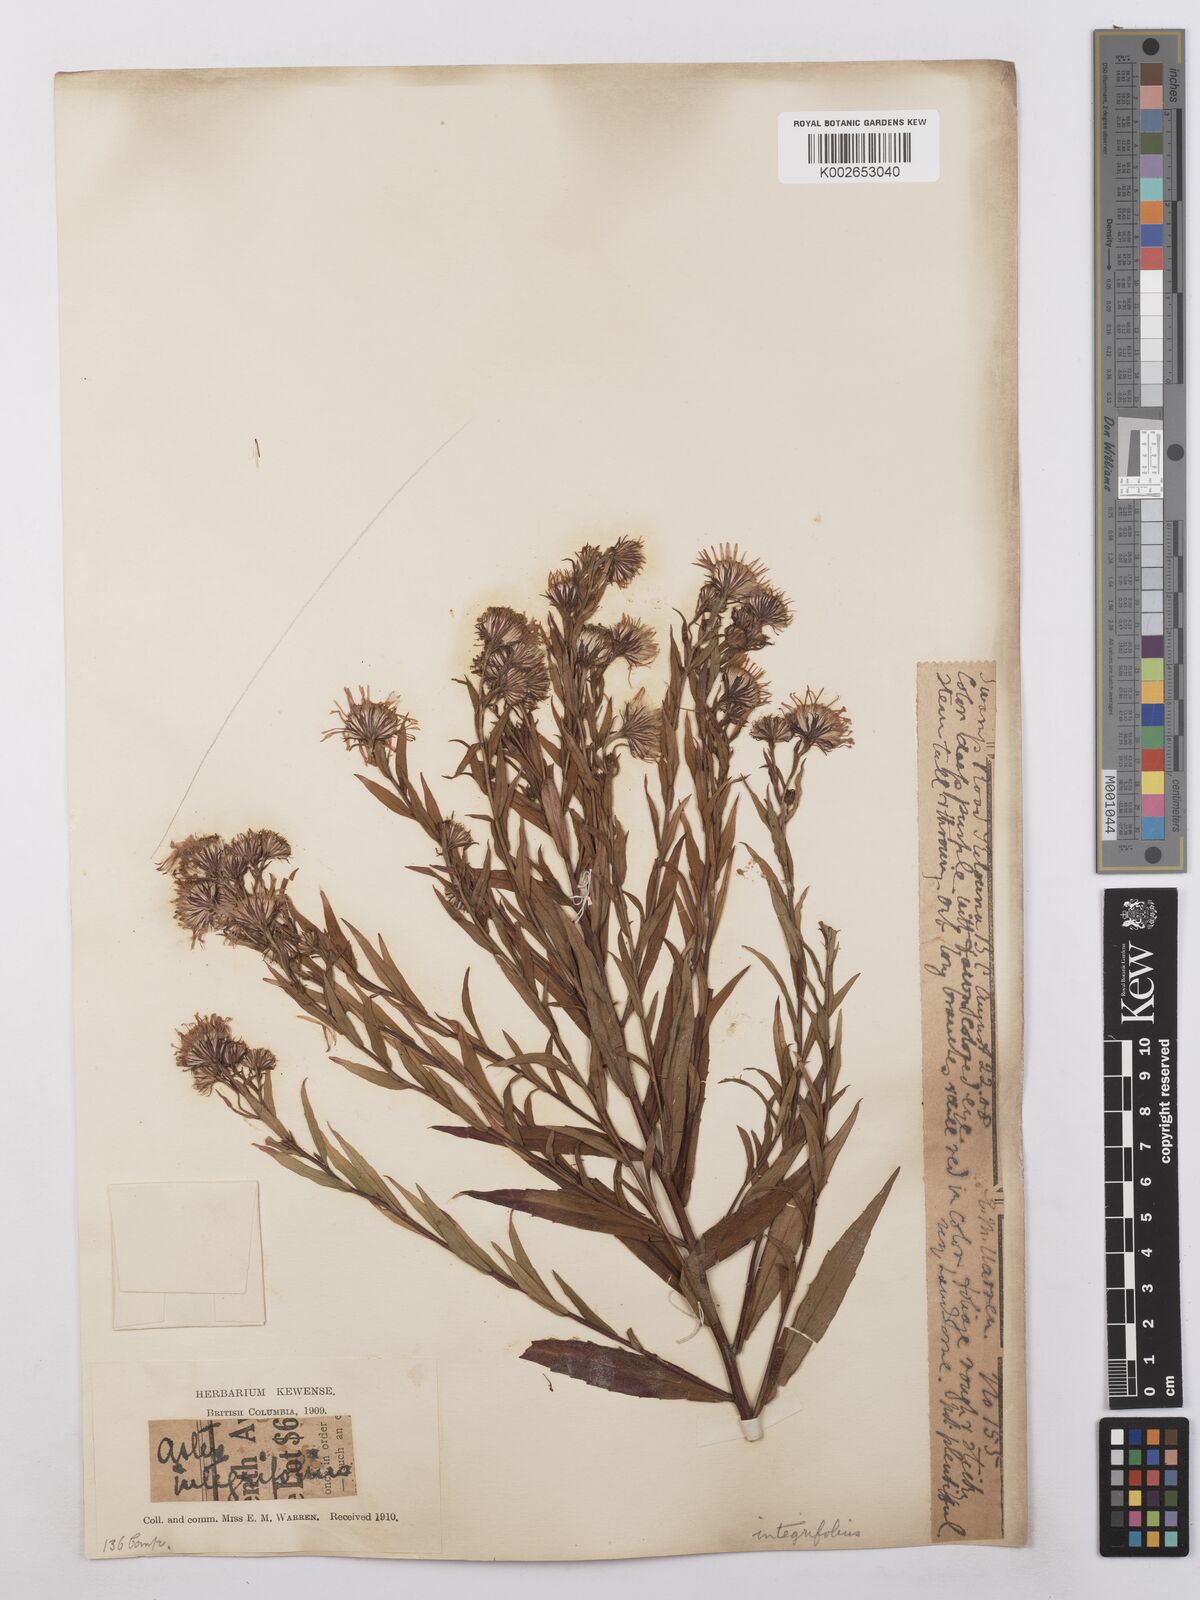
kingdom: Plantae
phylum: Tracheophyta
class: Magnoliopsida
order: Asterales
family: Asteraceae
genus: Symphyotrichum
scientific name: Symphyotrichum novae-angliae
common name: Michaelmas daisy
